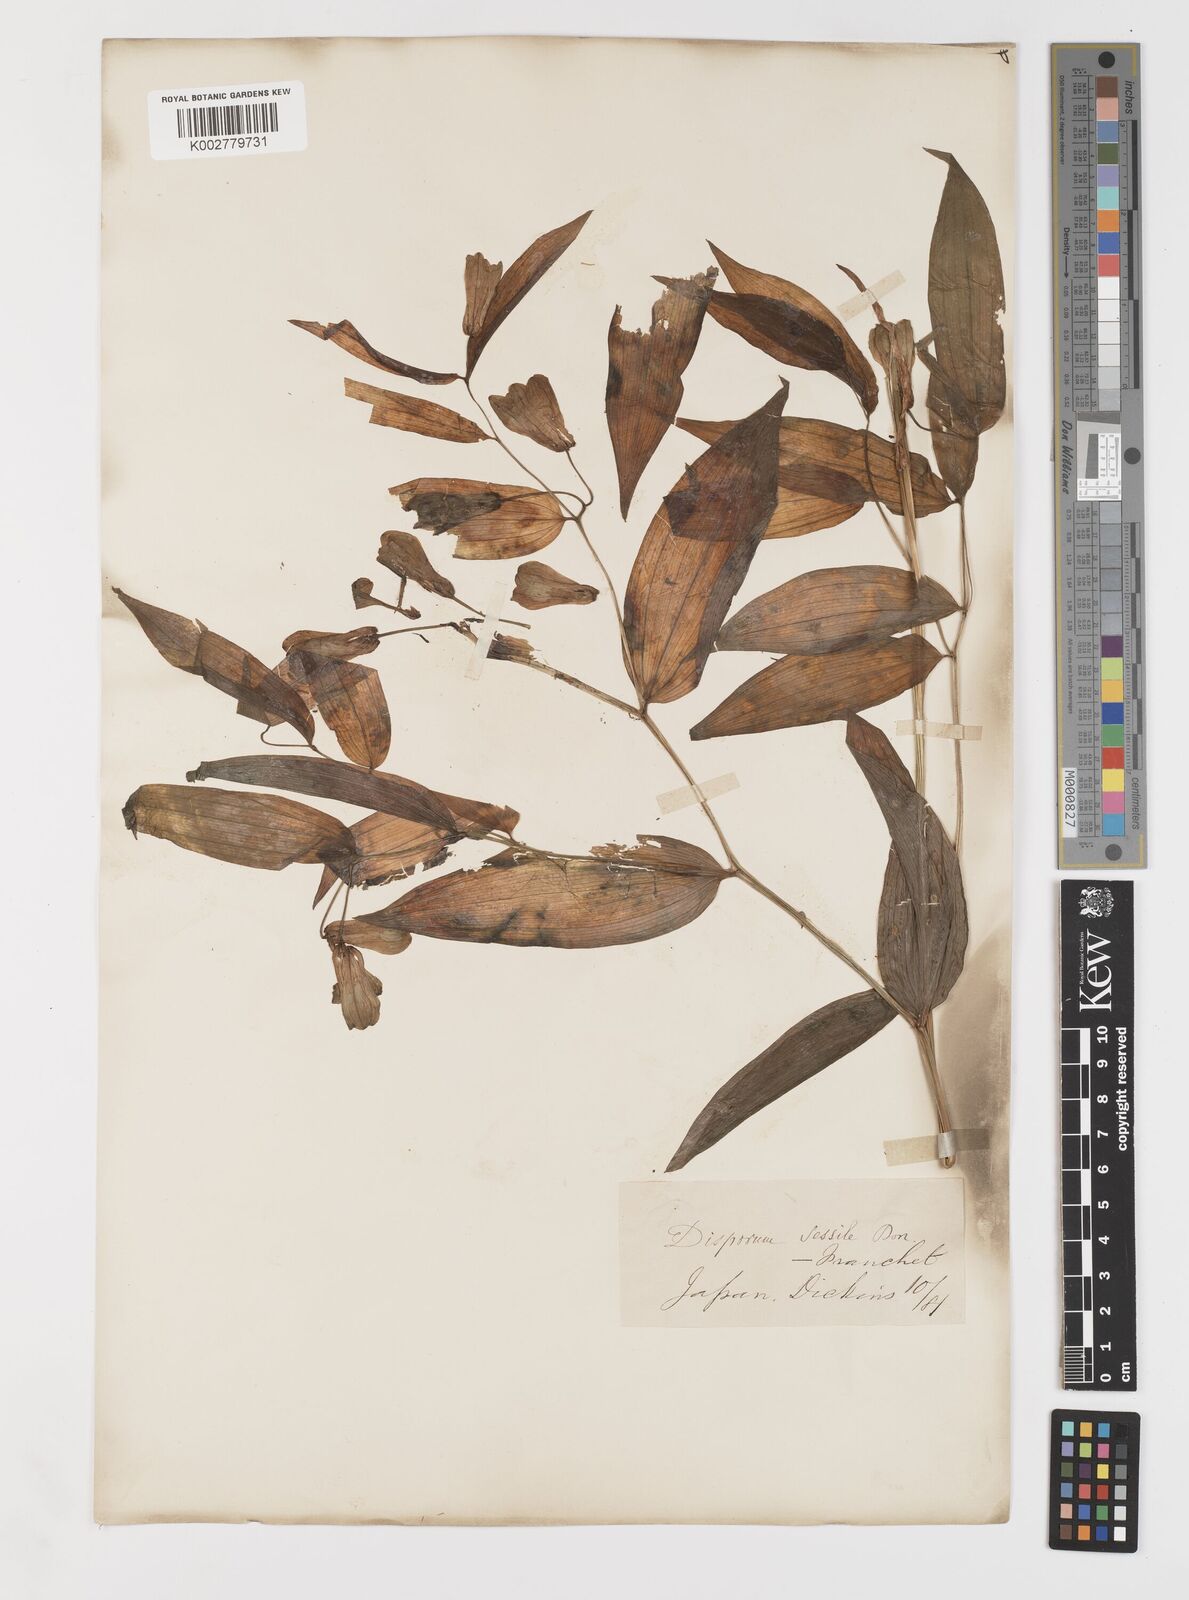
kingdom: Plantae
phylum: Tracheophyta
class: Liliopsida
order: Liliales
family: Colchicaceae
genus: Disporum
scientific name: Disporum sessile
